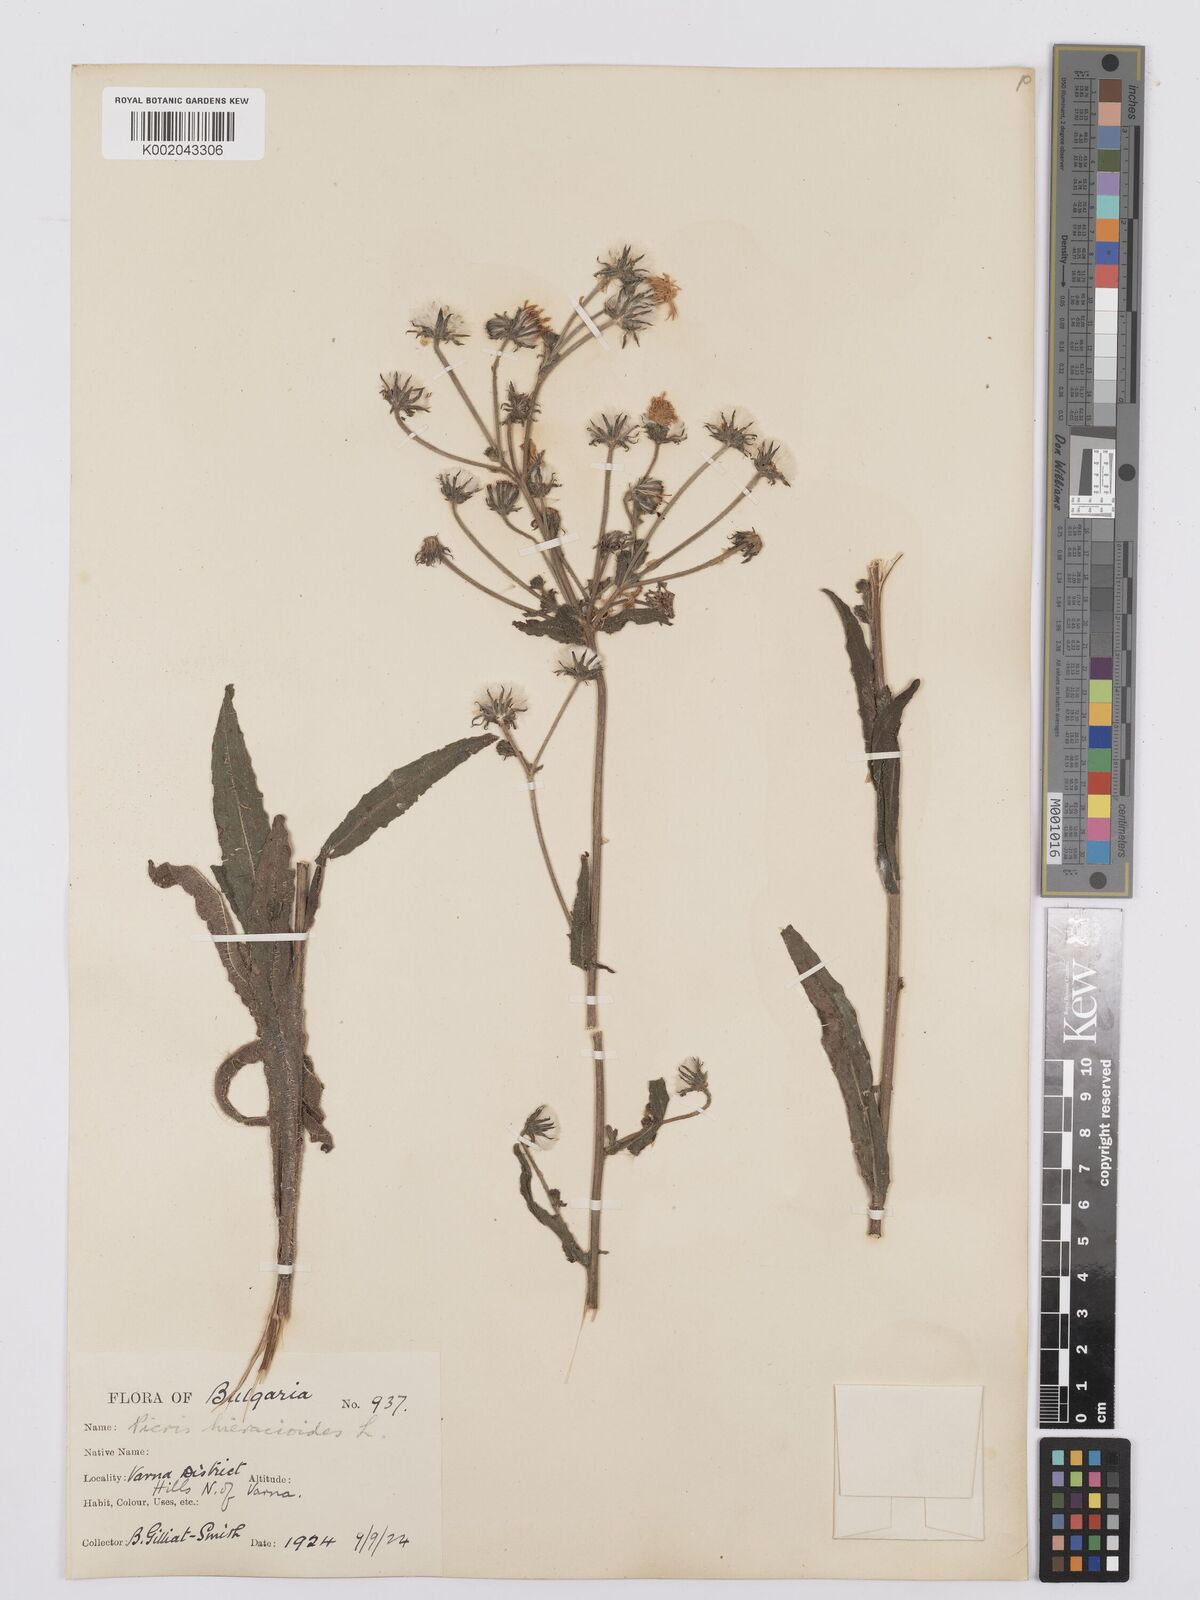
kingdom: Plantae
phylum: Tracheophyta
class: Magnoliopsida
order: Asterales
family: Asteraceae
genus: Picris
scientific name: Picris hieracioides
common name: Hawkweed oxtongue
